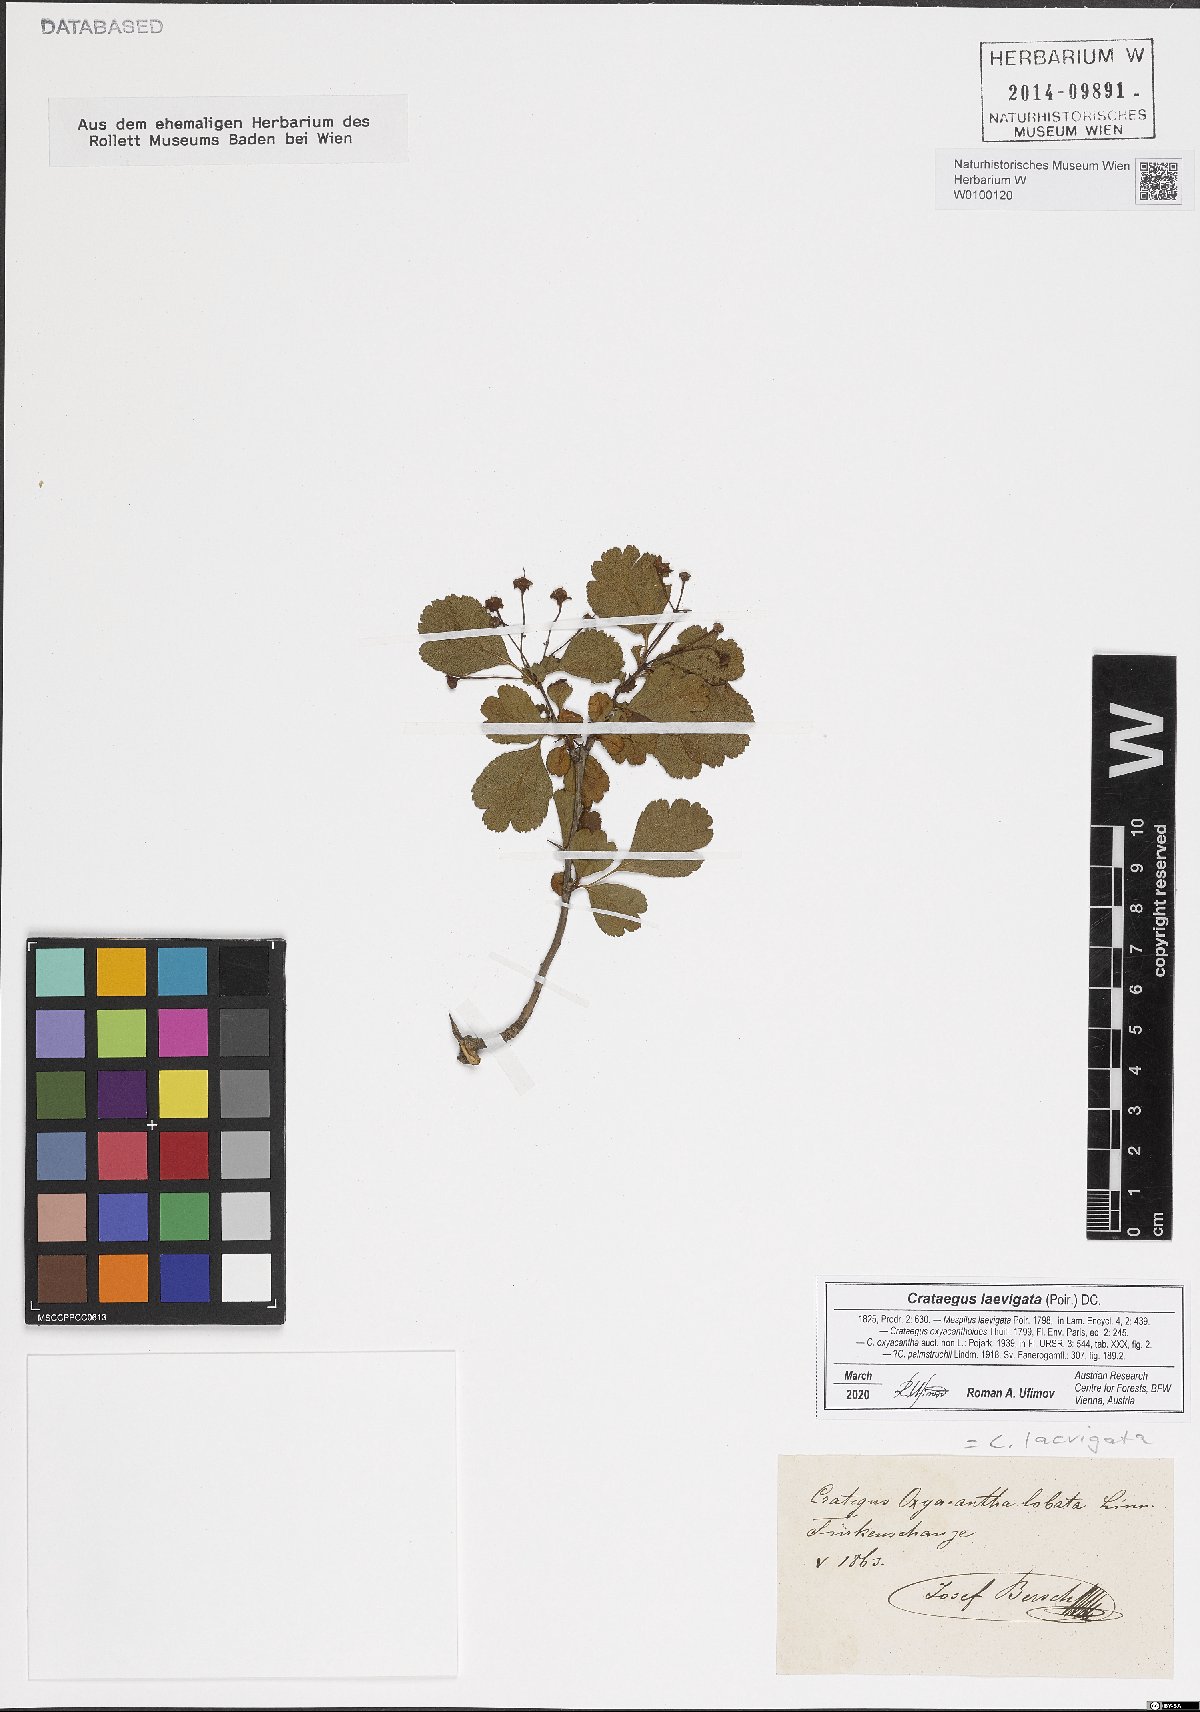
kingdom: Plantae
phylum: Tracheophyta
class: Magnoliopsida
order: Rosales
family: Rosaceae
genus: Crataegus
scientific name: Crataegus laevigata
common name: Midland hawthorn
